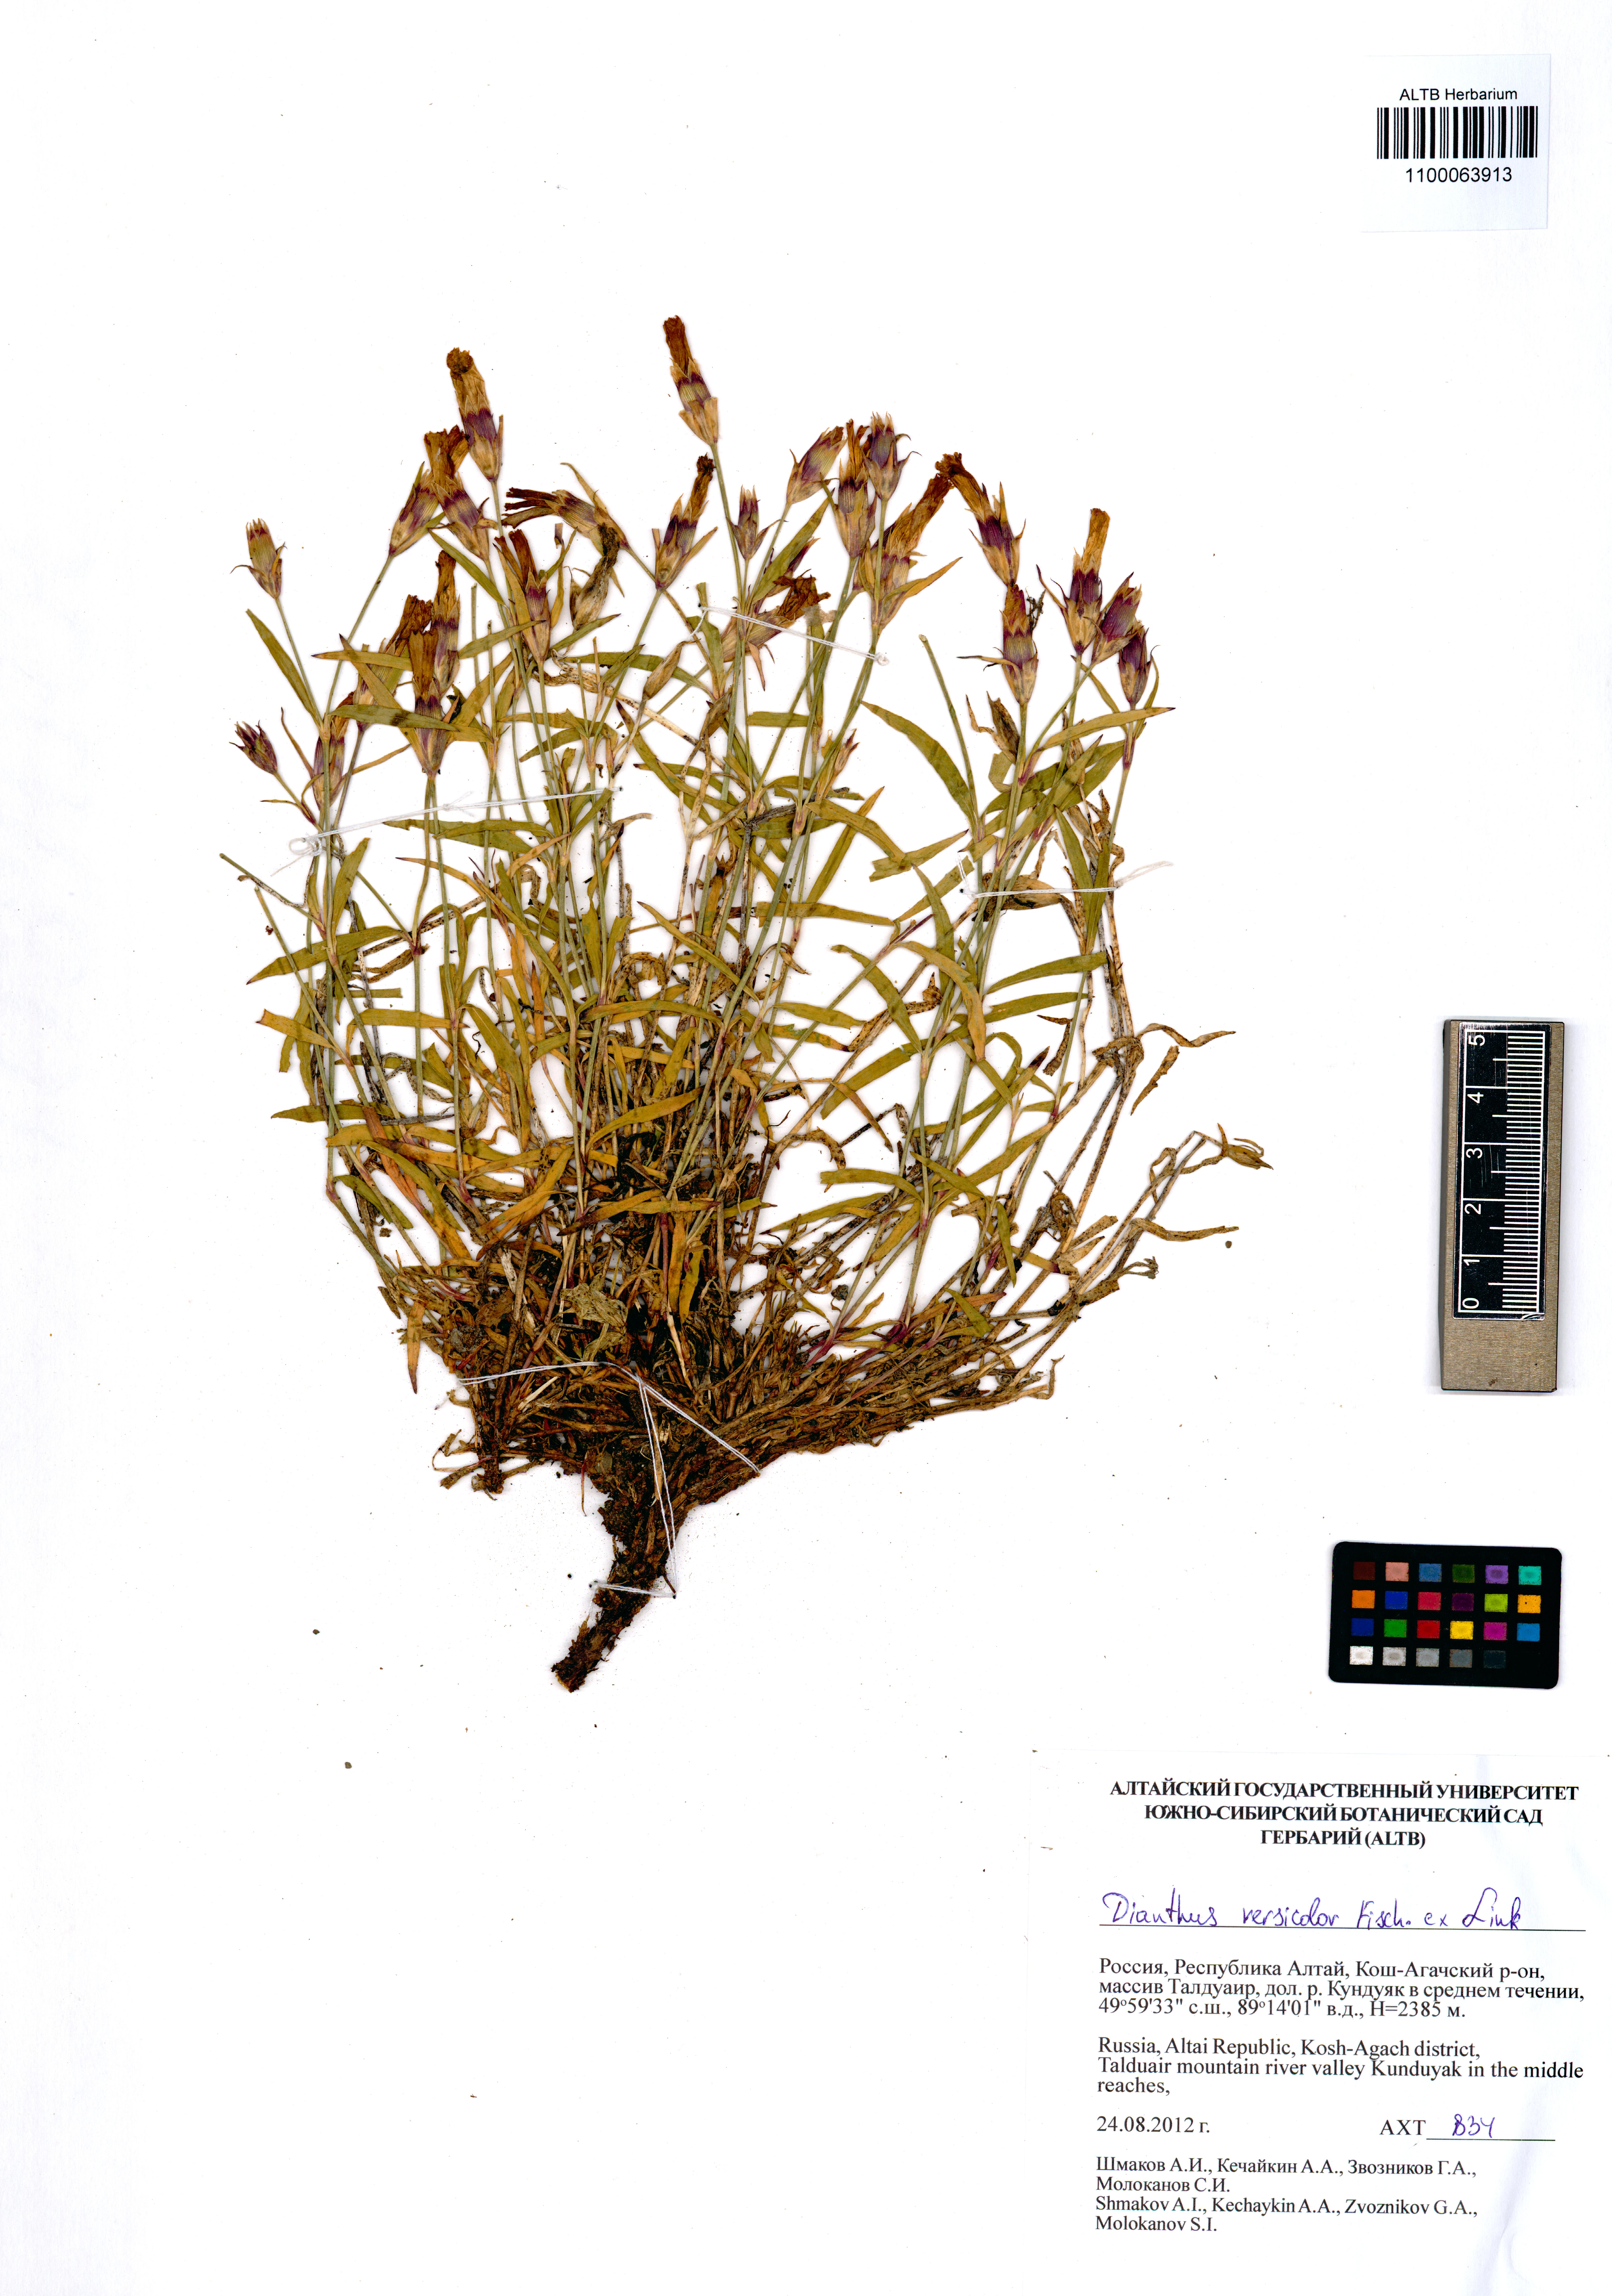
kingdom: Plantae
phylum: Tracheophyta
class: Magnoliopsida
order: Caryophyllales
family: Caryophyllaceae
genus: Dianthus
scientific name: Dianthus chinensis
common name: Rainbow pink
